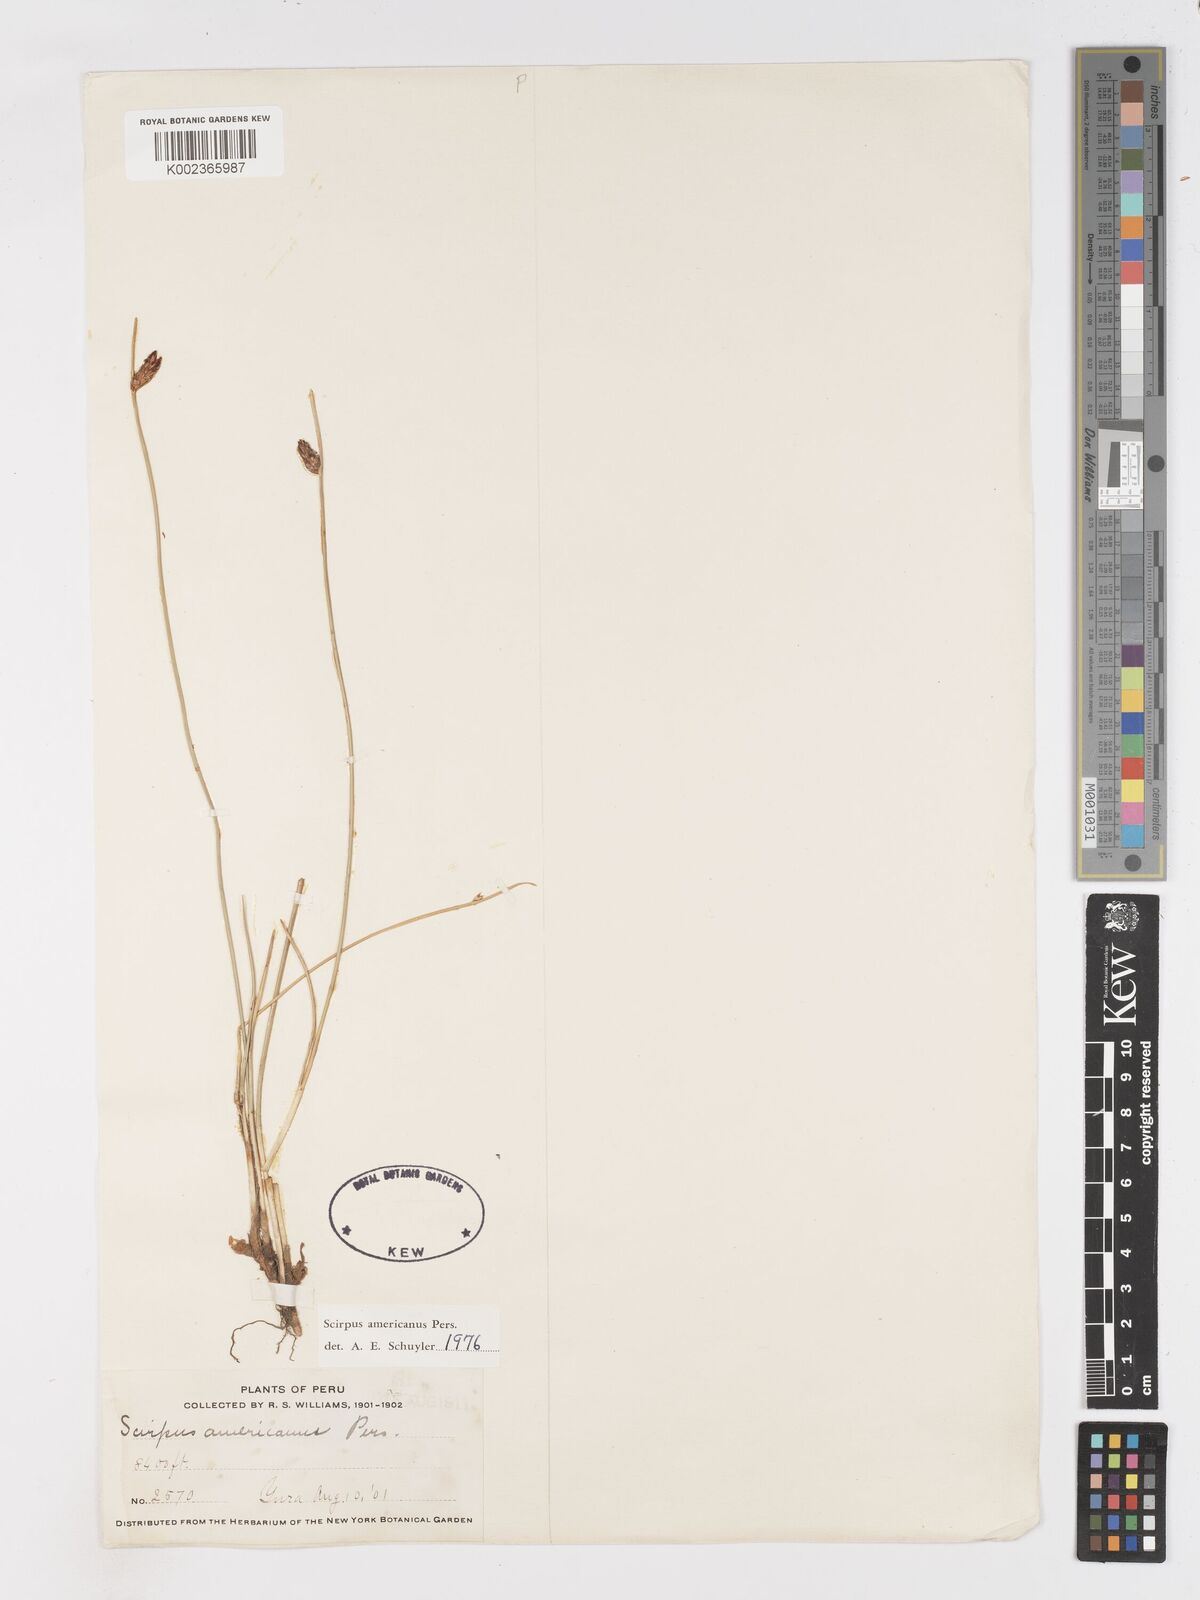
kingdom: Plantae
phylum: Tracheophyta
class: Liliopsida
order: Poales
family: Cyperaceae
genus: Schoenoplectus
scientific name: Schoenoplectus americanus
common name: American three-square bulrush
